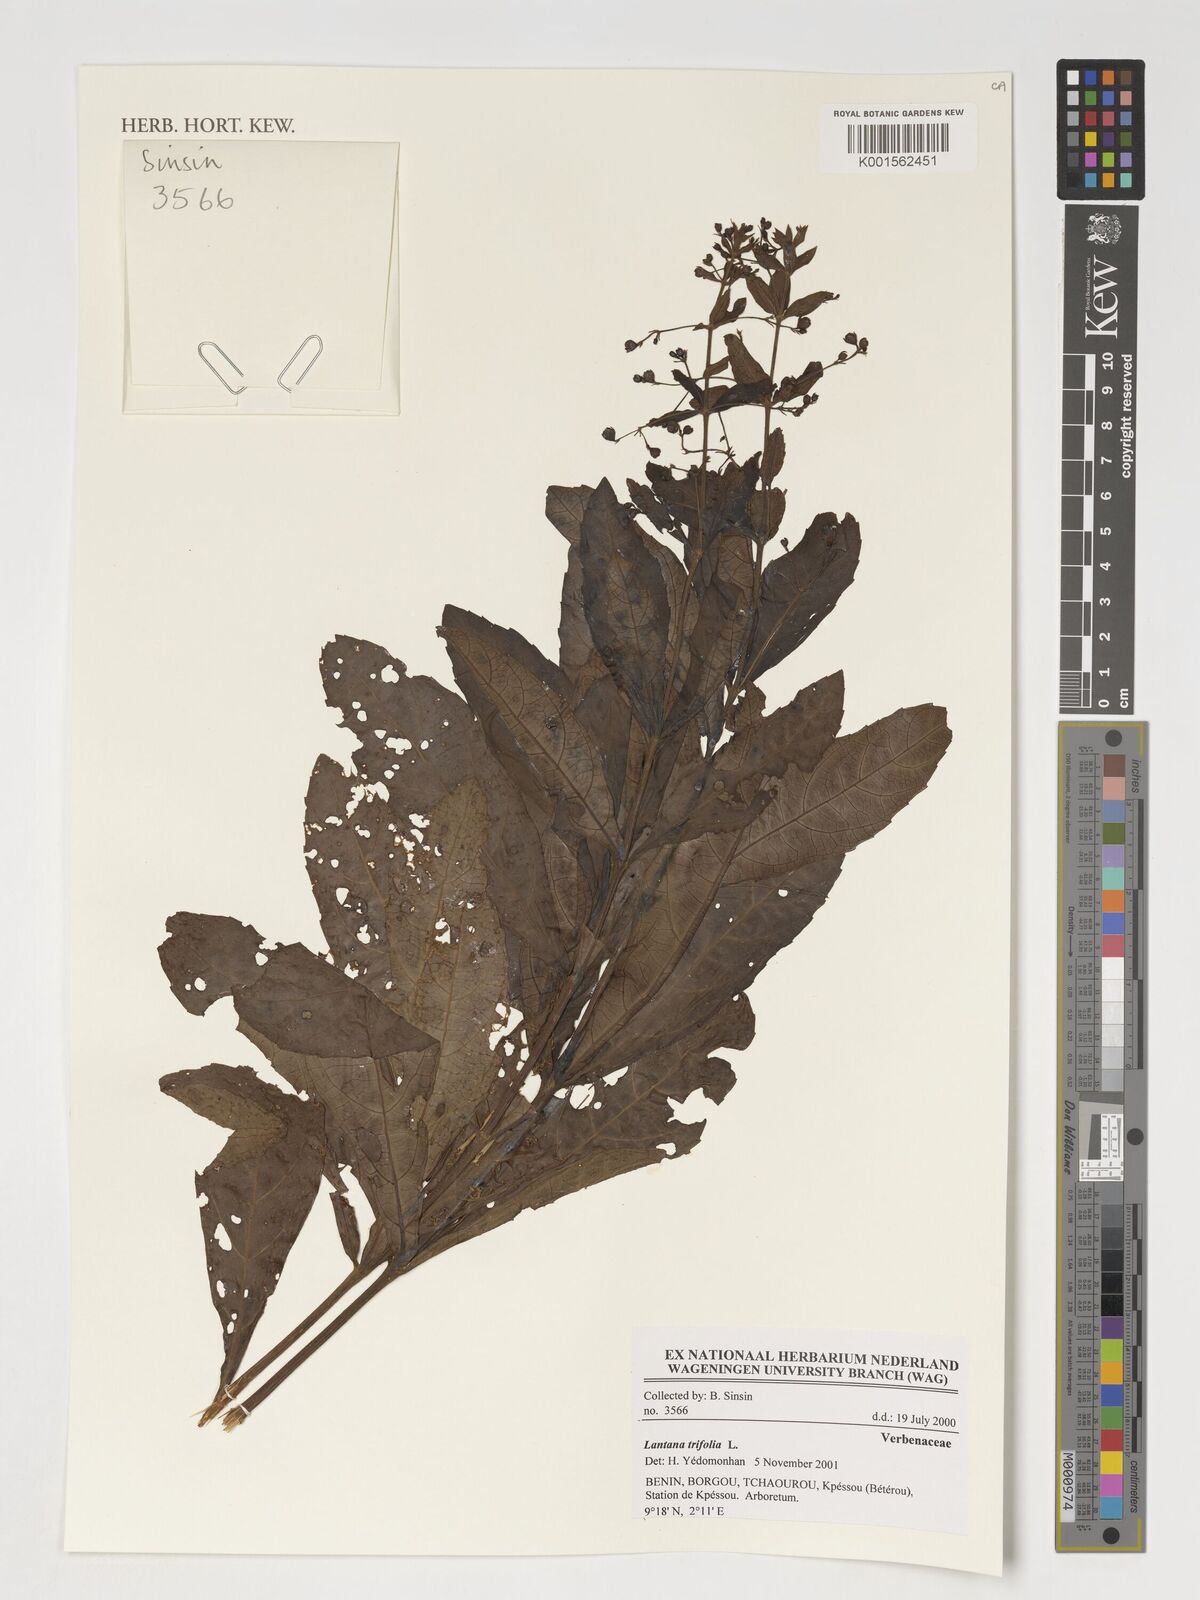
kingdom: Plantae
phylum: Tracheophyta
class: Magnoliopsida
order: Lamiales
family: Verbenaceae
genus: Lantana
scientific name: Lantana trifolia
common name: Sweet-sage
